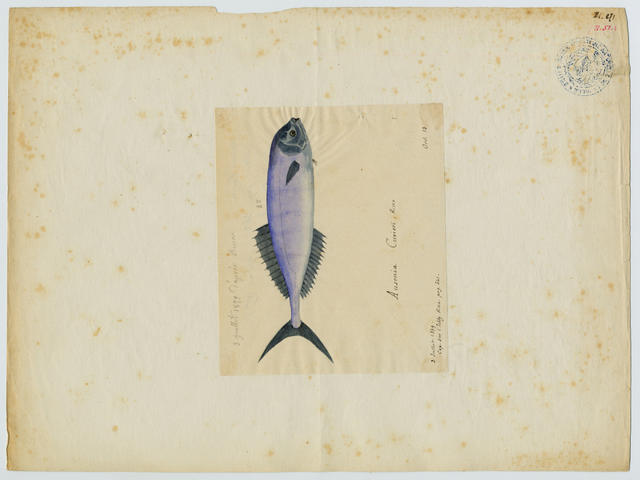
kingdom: Animalia
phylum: Chordata
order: Perciformes
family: Luvaridae
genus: Luvarus
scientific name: Luvarus imperialis
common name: Louvar
